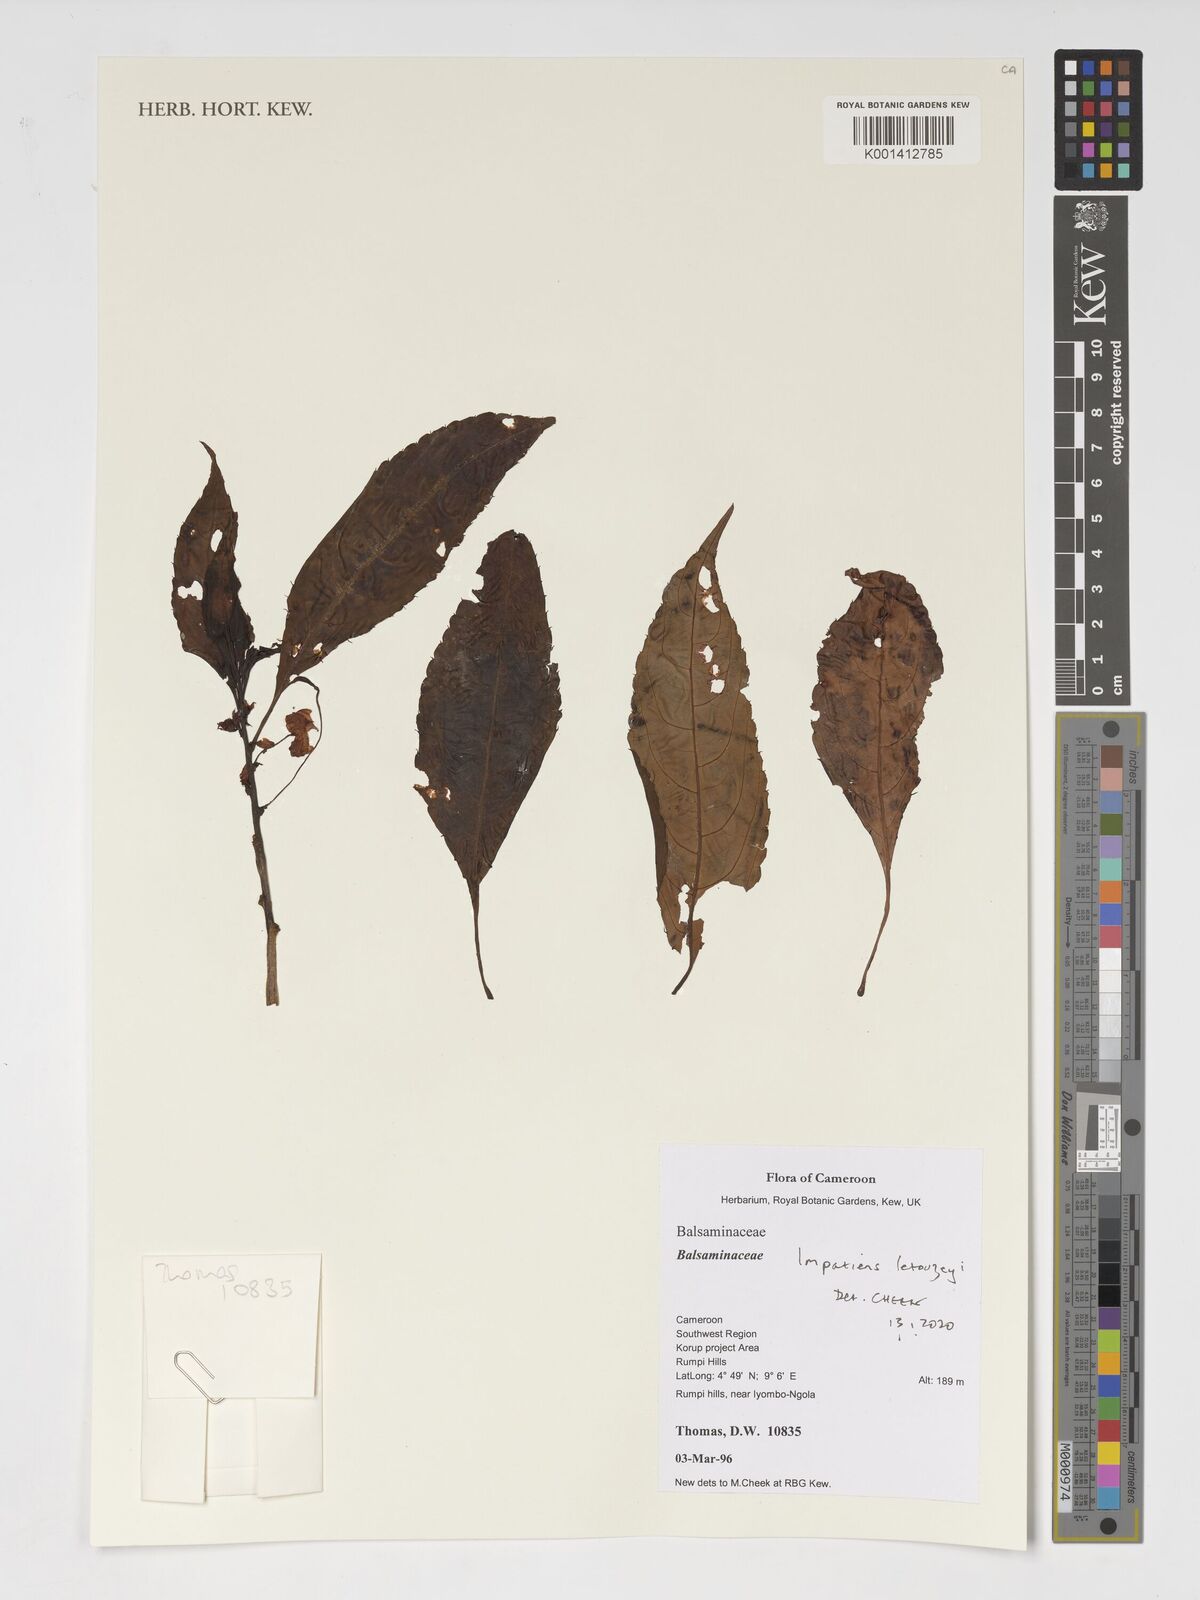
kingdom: Plantae
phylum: Tracheophyta
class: Magnoliopsida
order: Ericales
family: Balsaminaceae
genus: Impatiens
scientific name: Impatiens letouzeyi
